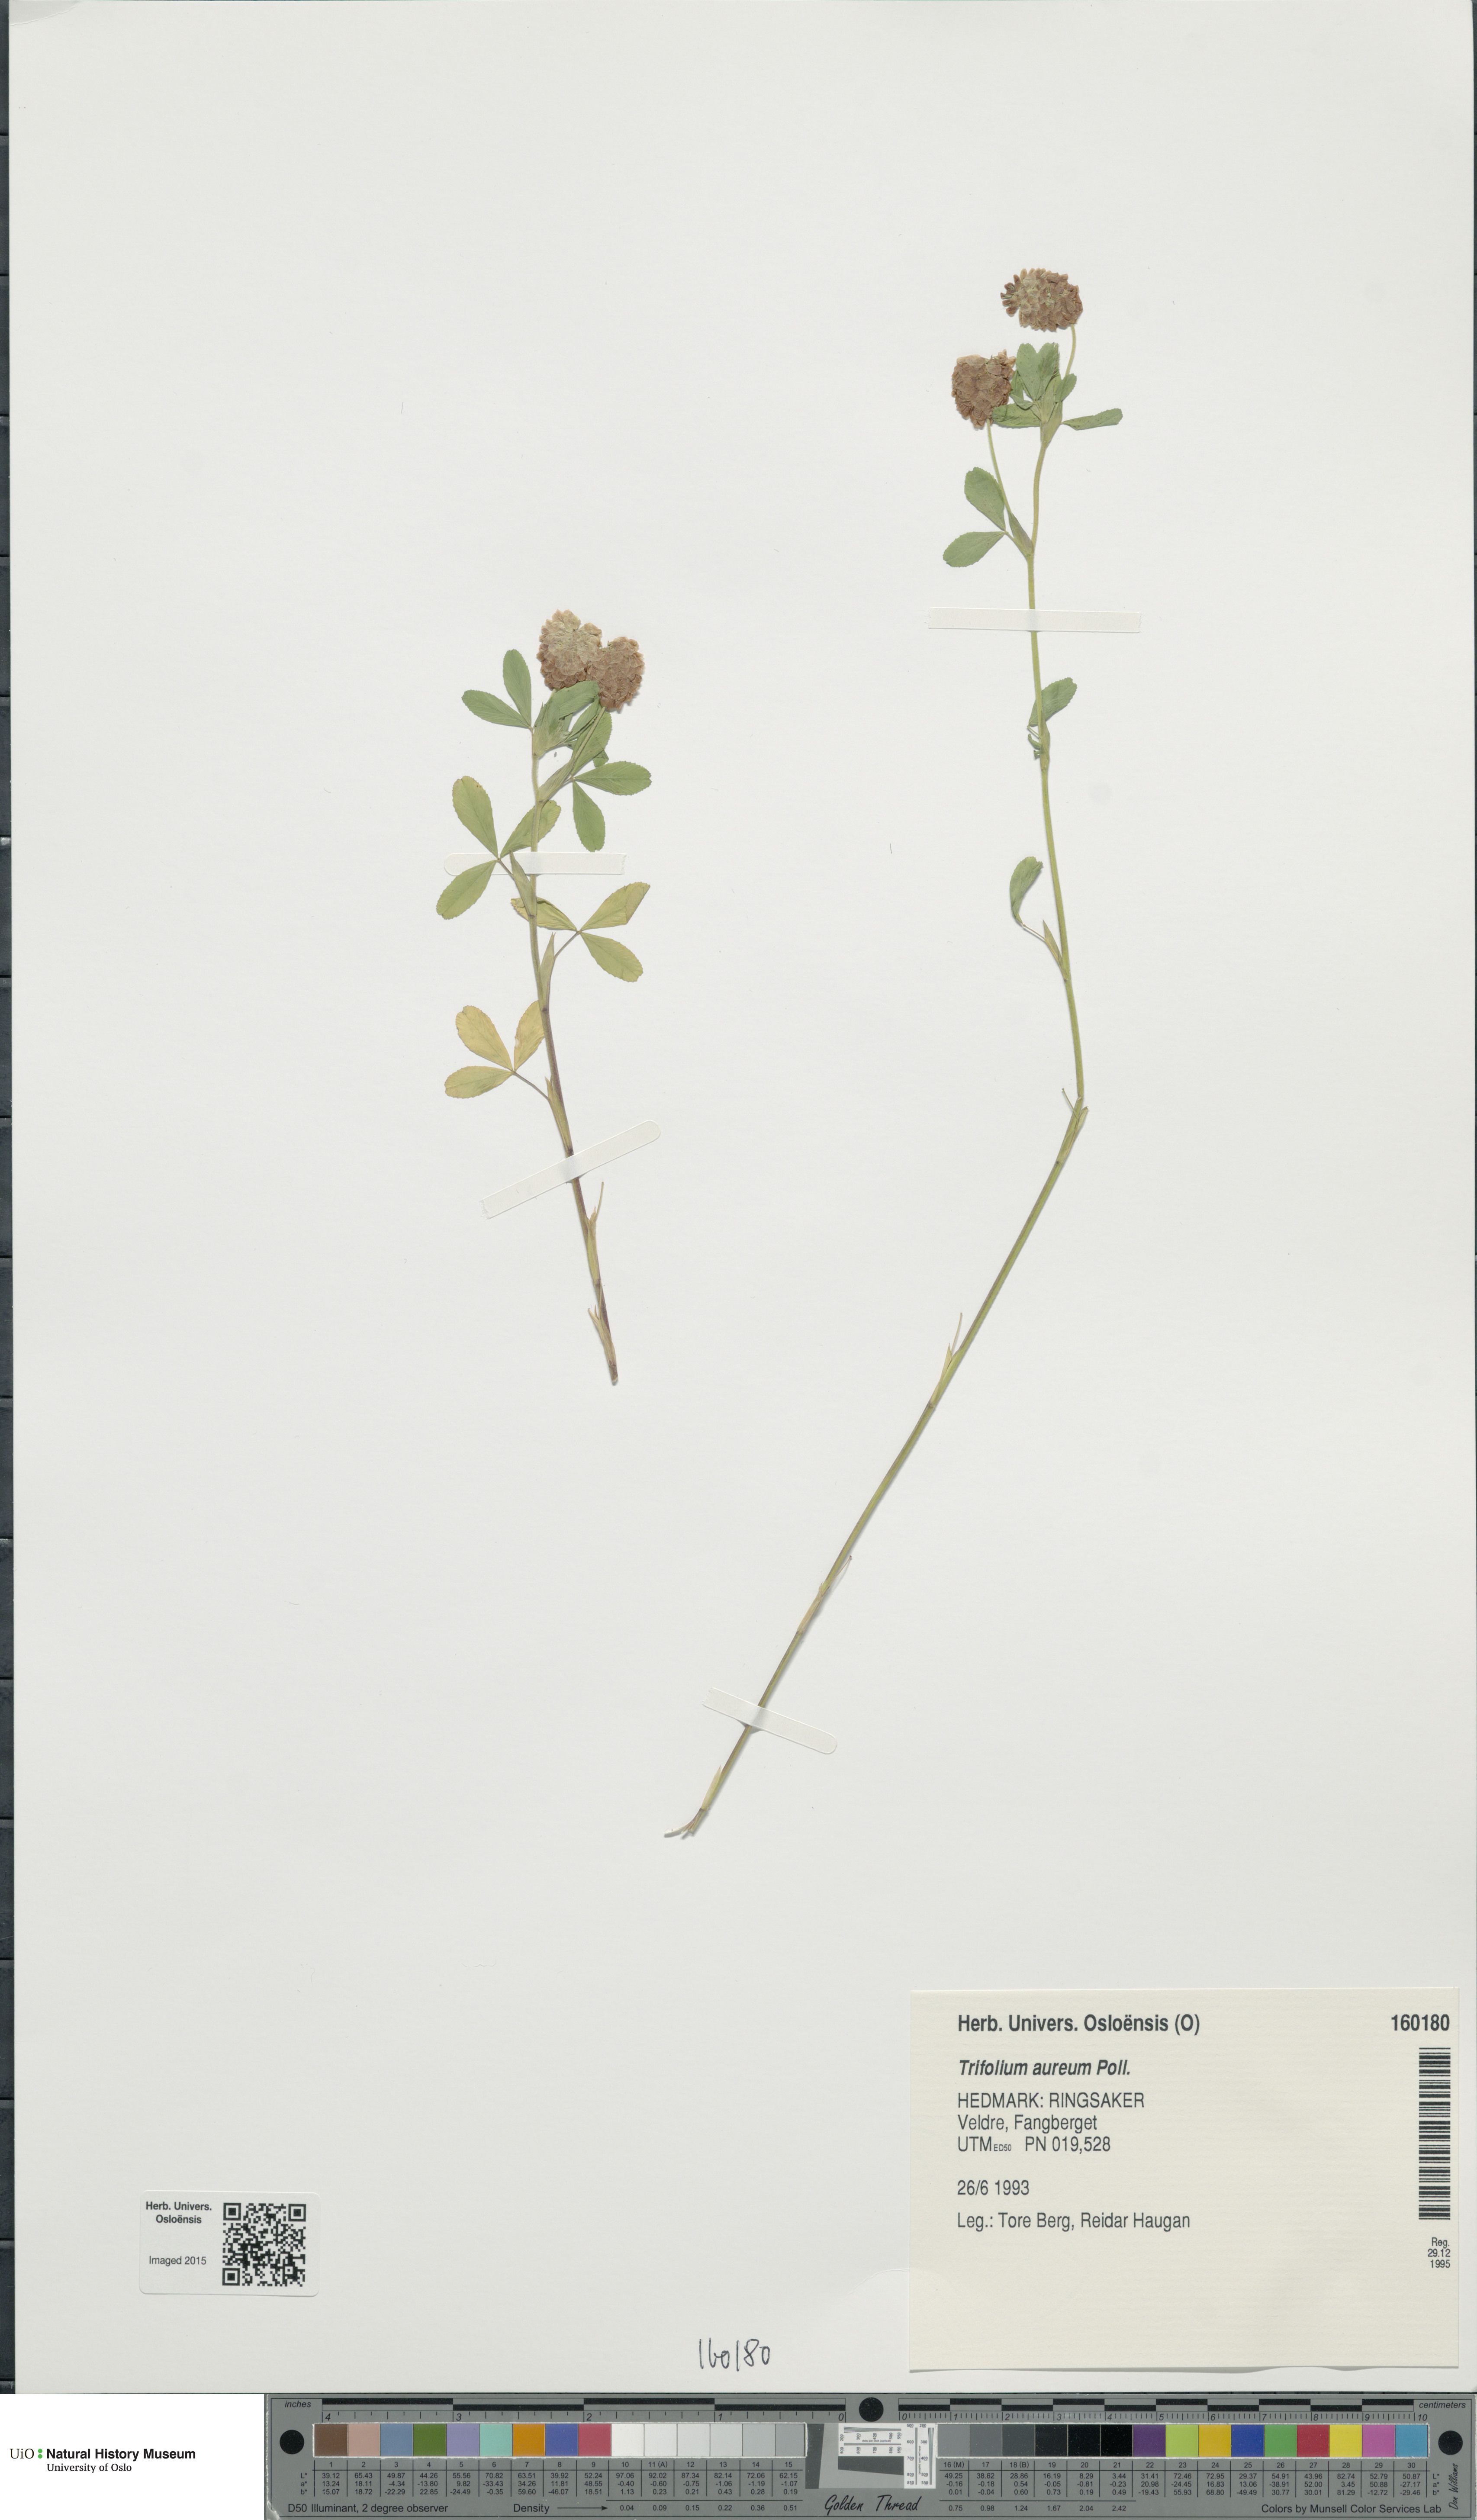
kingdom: Plantae
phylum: Tracheophyta
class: Magnoliopsida
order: Fabales
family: Fabaceae
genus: Trifolium
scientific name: Trifolium aureum
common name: Golden clover
